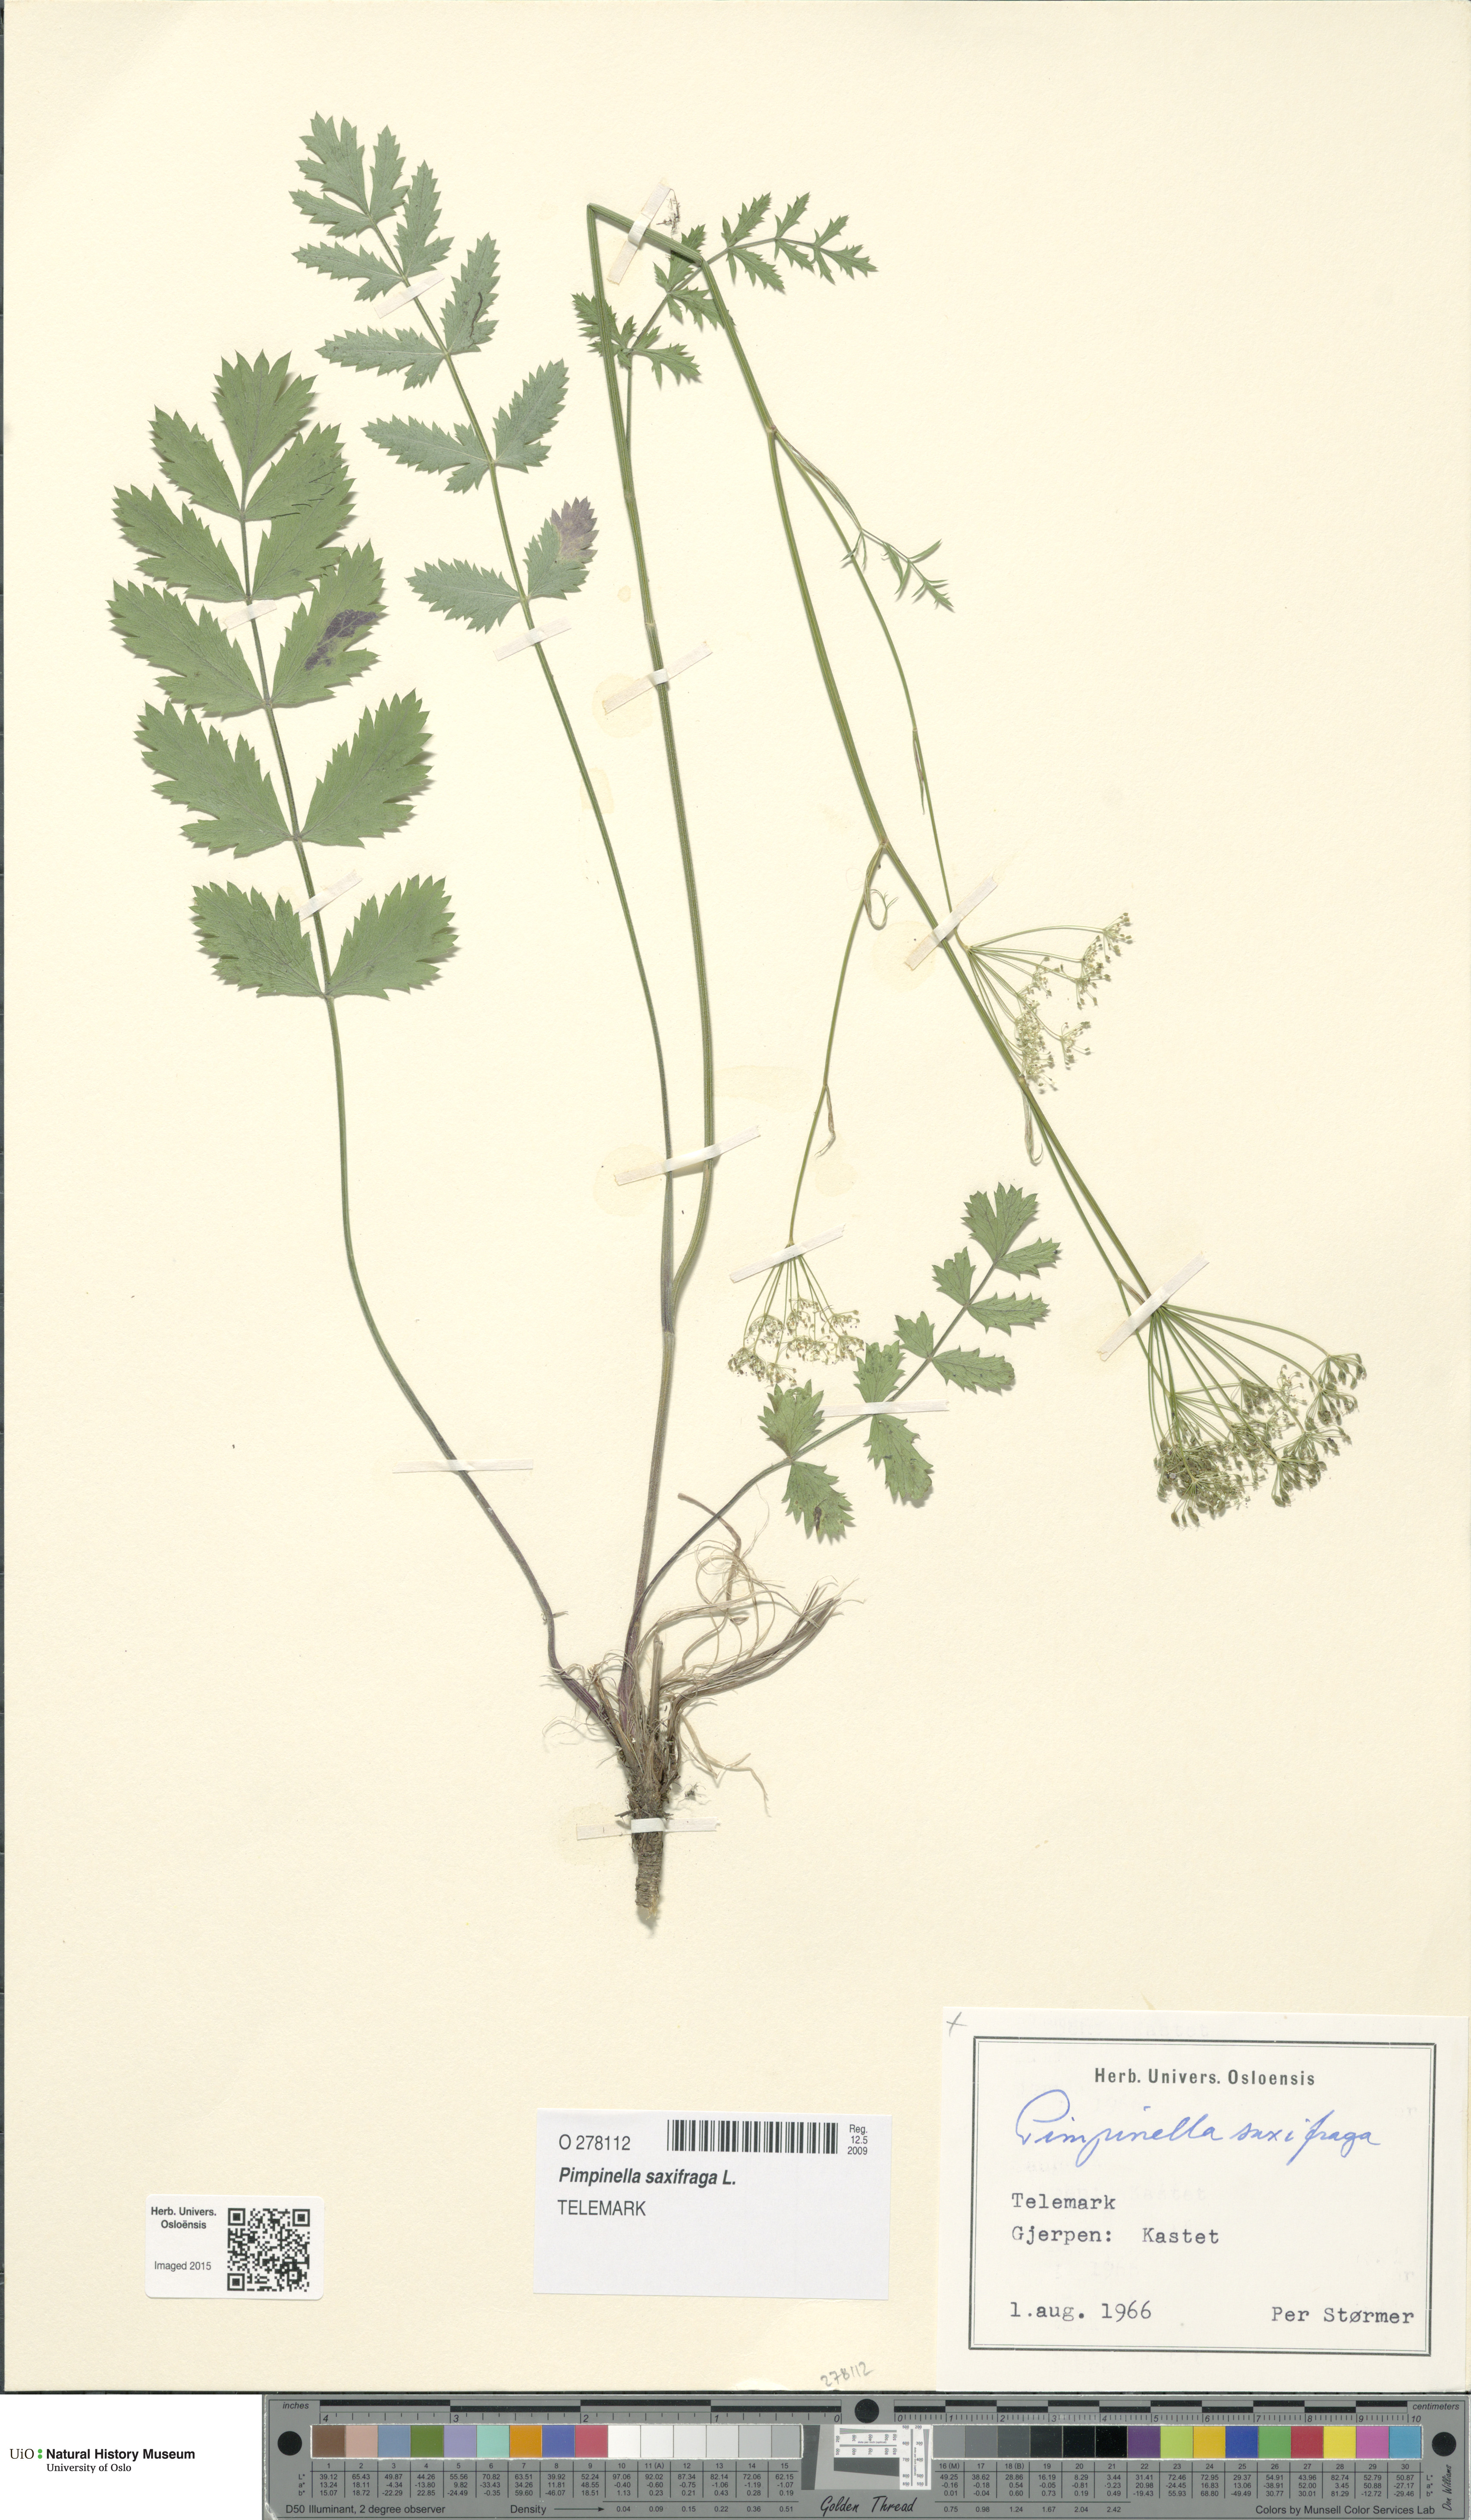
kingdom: Plantae
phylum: Tracheophyta
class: Magnoliopsida
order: Apiales
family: Apiaceae
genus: Pimpinella
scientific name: Pimpinella saxifraga
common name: Burnet-saxifrage
